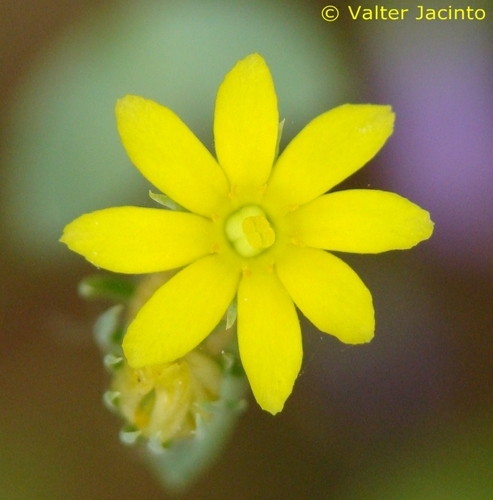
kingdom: Plantae
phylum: Tracheophyta
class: Magnoliopsida
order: Gentianales
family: Gentianaceae
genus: Blackstonia
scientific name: Blackstonia perfoliata
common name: Yellow-wort
